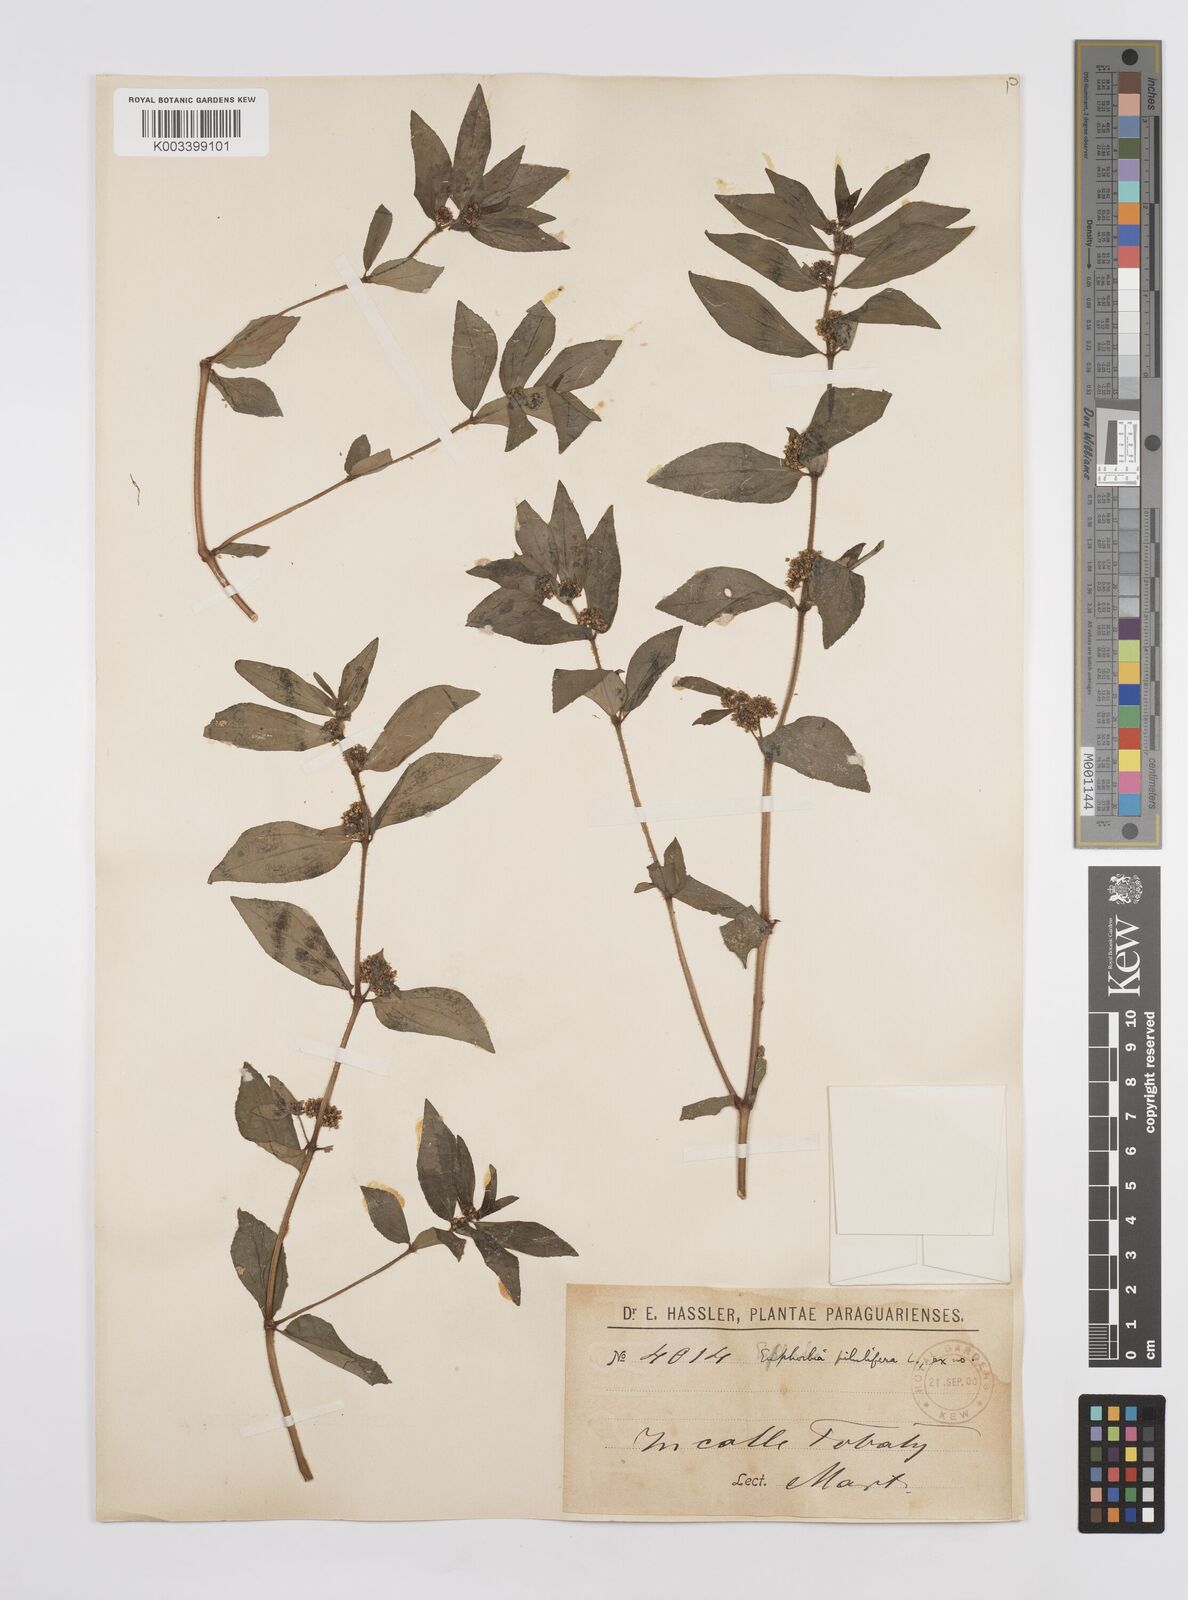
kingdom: Plantae
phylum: Tracheophyta
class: Magnoliopsida
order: Malpighiales
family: Euphorbiaceae
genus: Euphorbia
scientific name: Euphorbia hirta
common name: Pillpod sandmat
